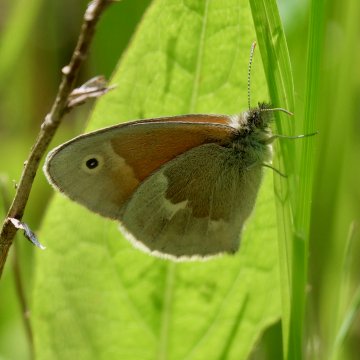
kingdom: Animalia
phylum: Arthropoda
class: Insecta
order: Lepidoptera
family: Nymphalidae
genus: Coenonympha
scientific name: Coenonympha tullia
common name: Large Heath
